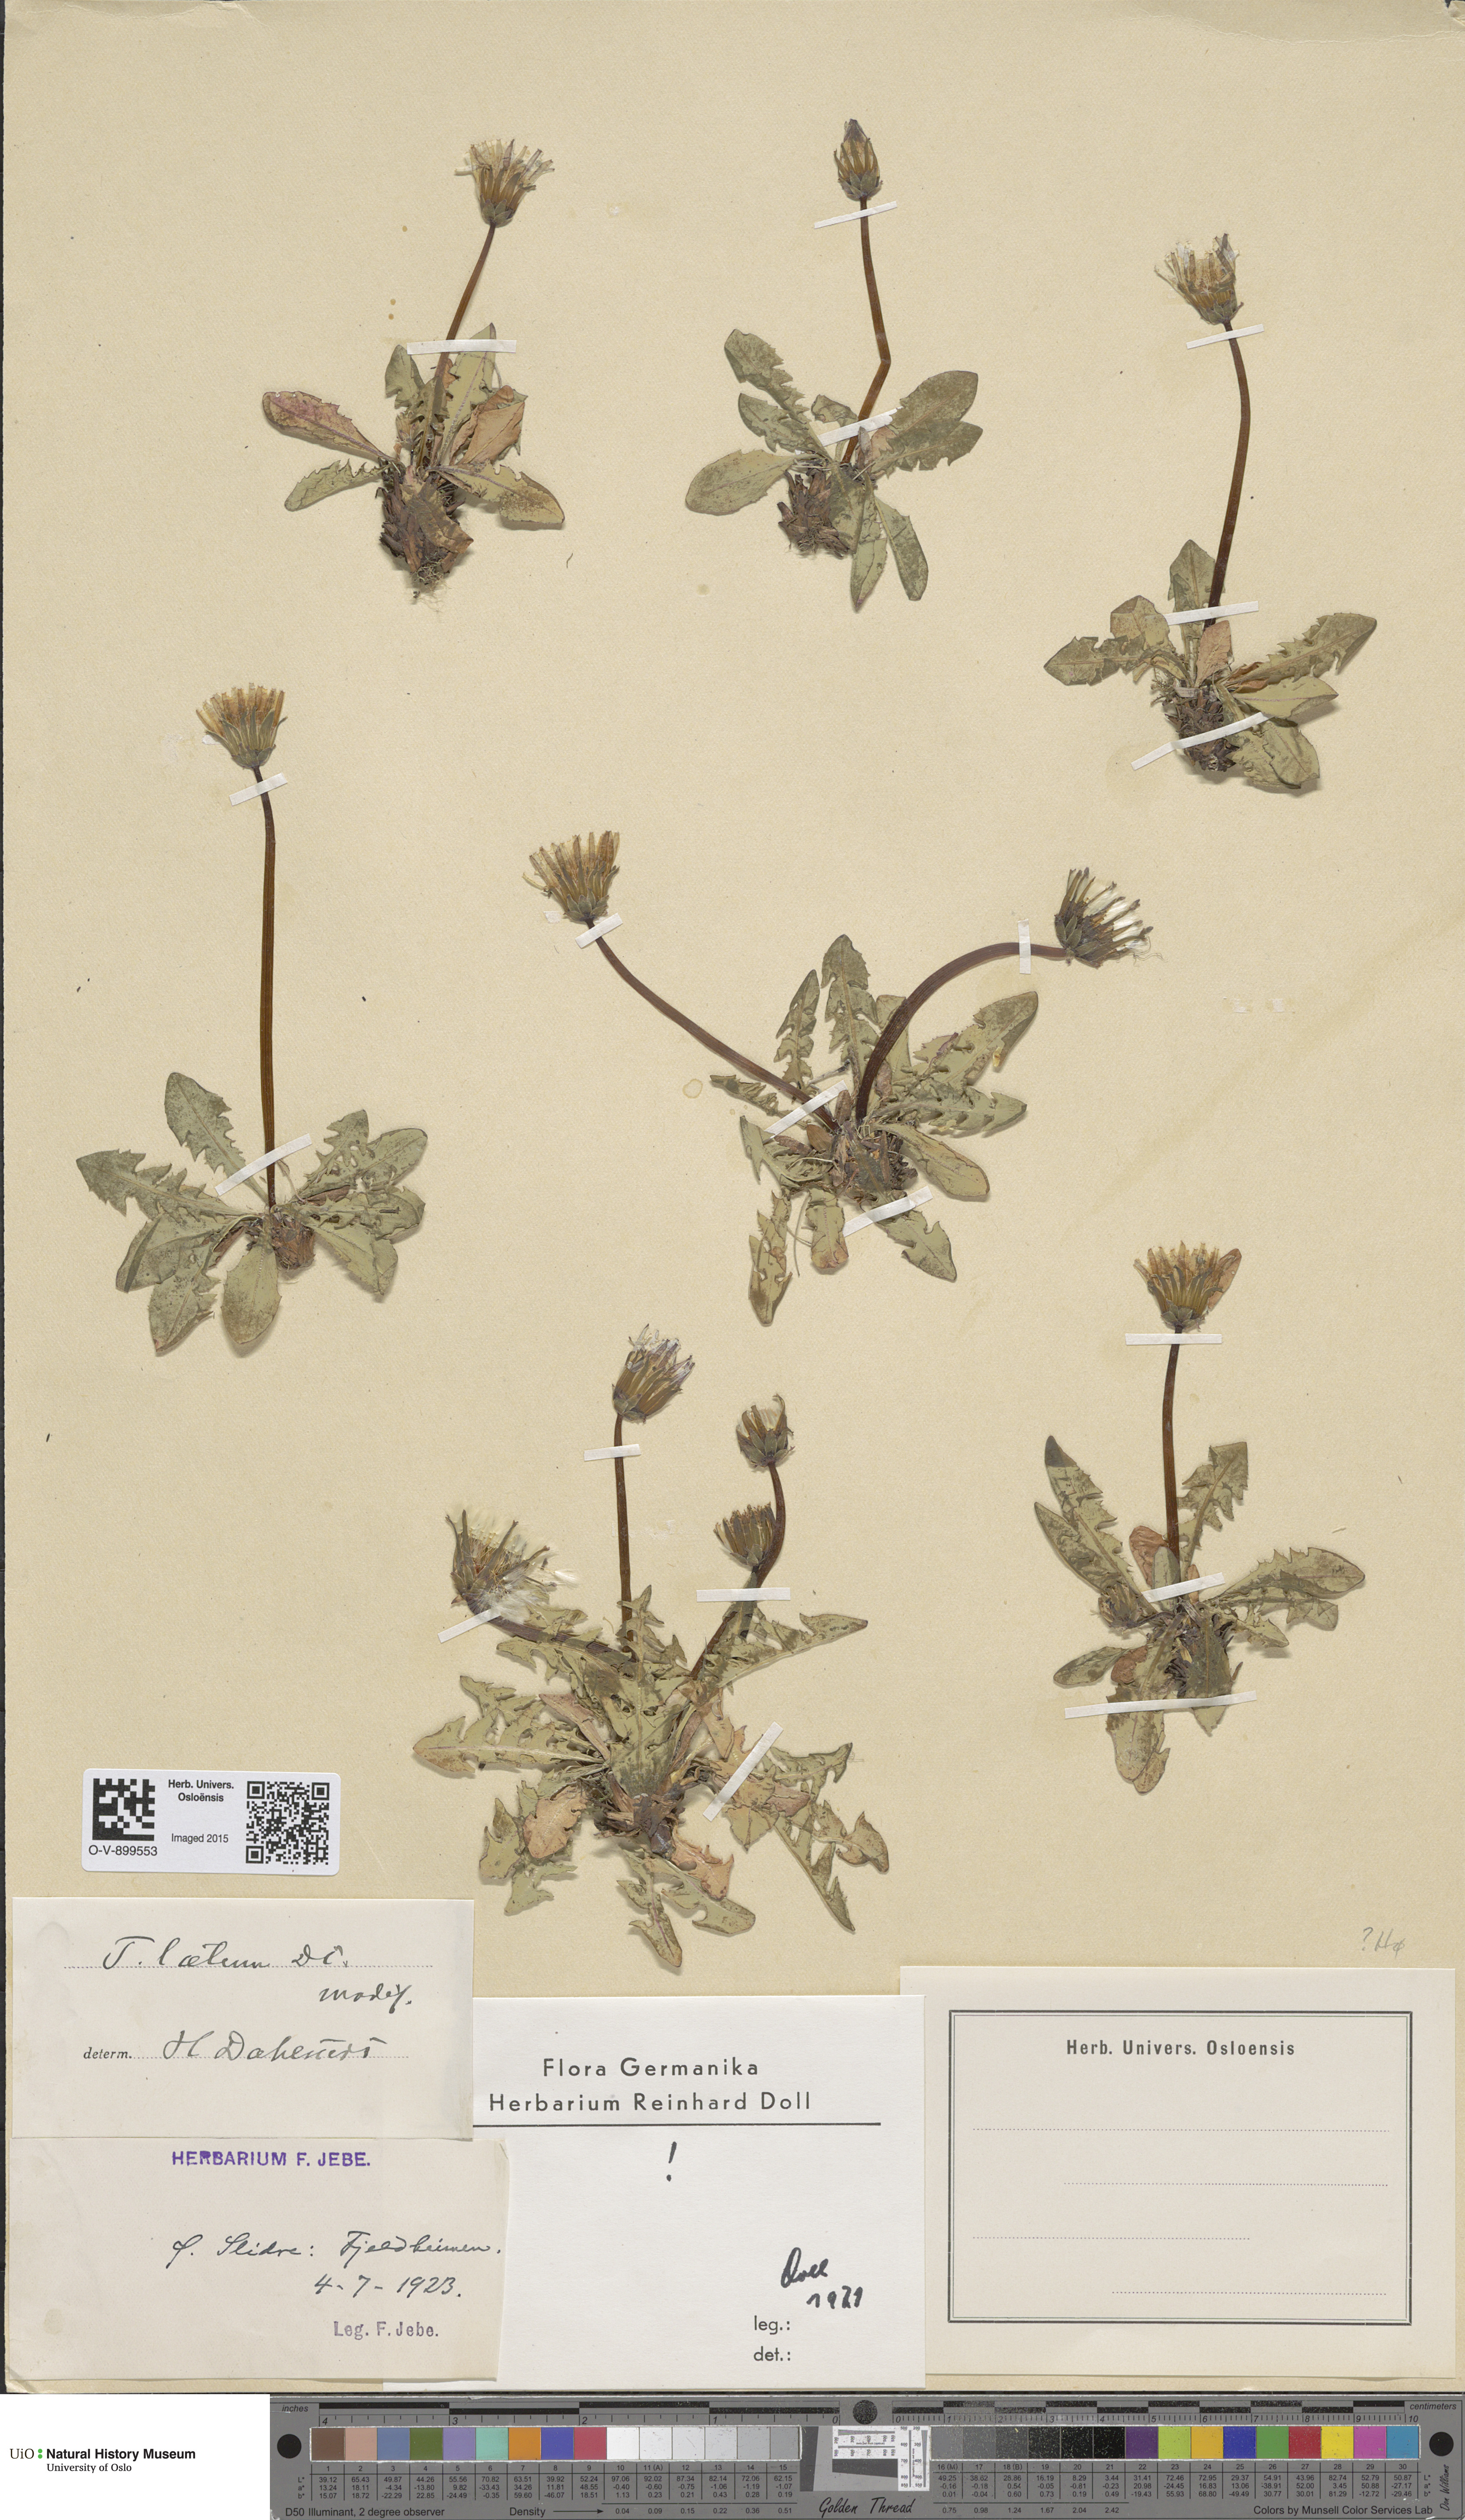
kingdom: Plantae
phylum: Tracheophyta
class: Magnoliopsida
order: Asterales
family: Asteraceae
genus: Taraxacum
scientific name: Taraxacum laetum
